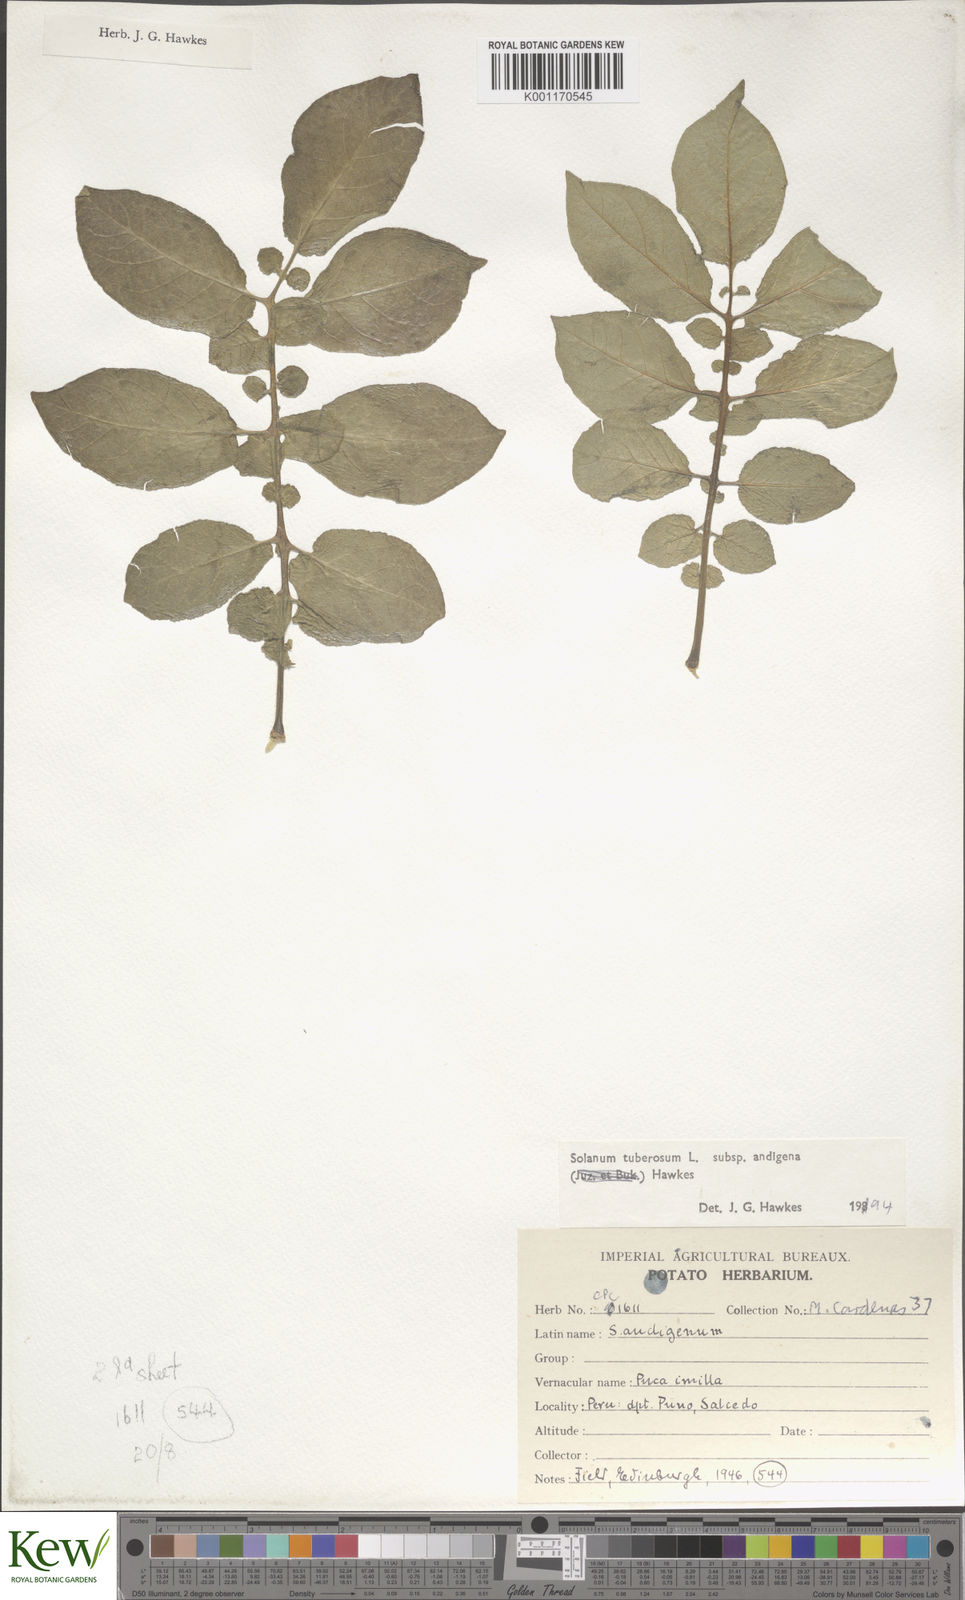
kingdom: Plantae
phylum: Tracheophyta
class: Magnoliopsida
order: Solanales
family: Solanaceae
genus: Solanum
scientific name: Solanum tuberosum
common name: Potato
